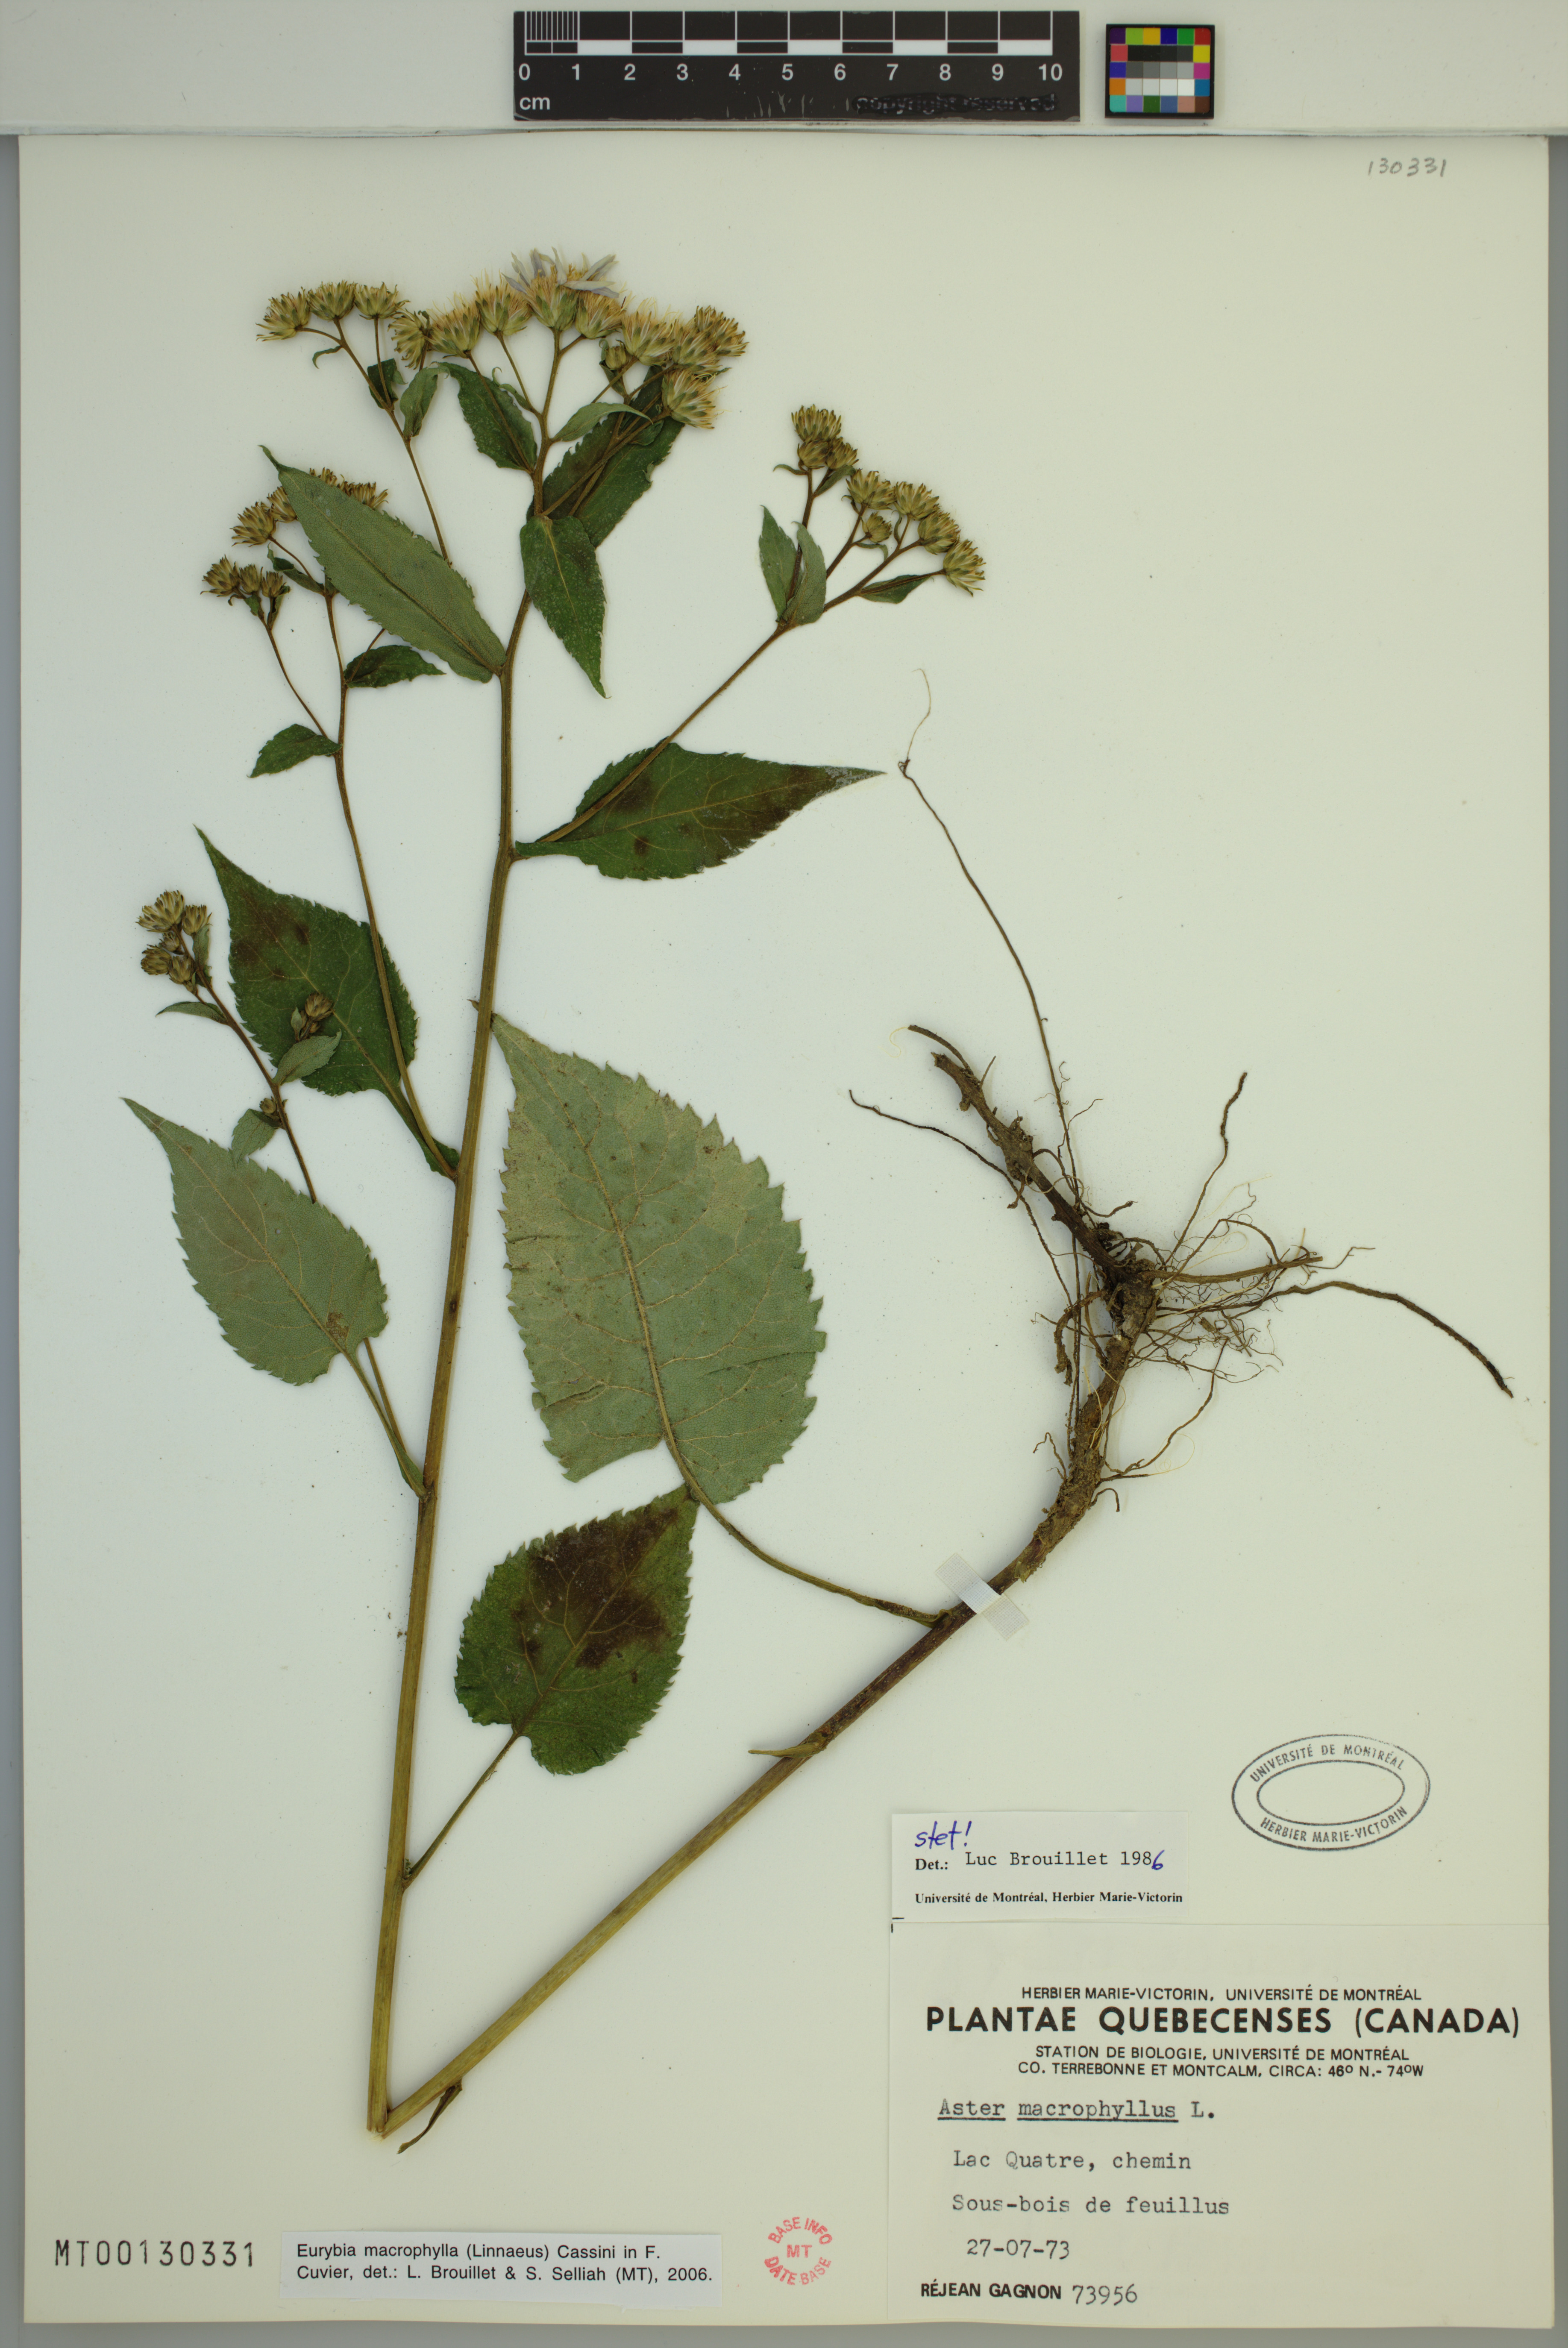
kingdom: Plantae
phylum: Tracheophyta
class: Magnoliopsida
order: Asterales
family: Asteraceae
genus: Eurybia
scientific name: Eurybia macrophylla
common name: Big-leaved aster
